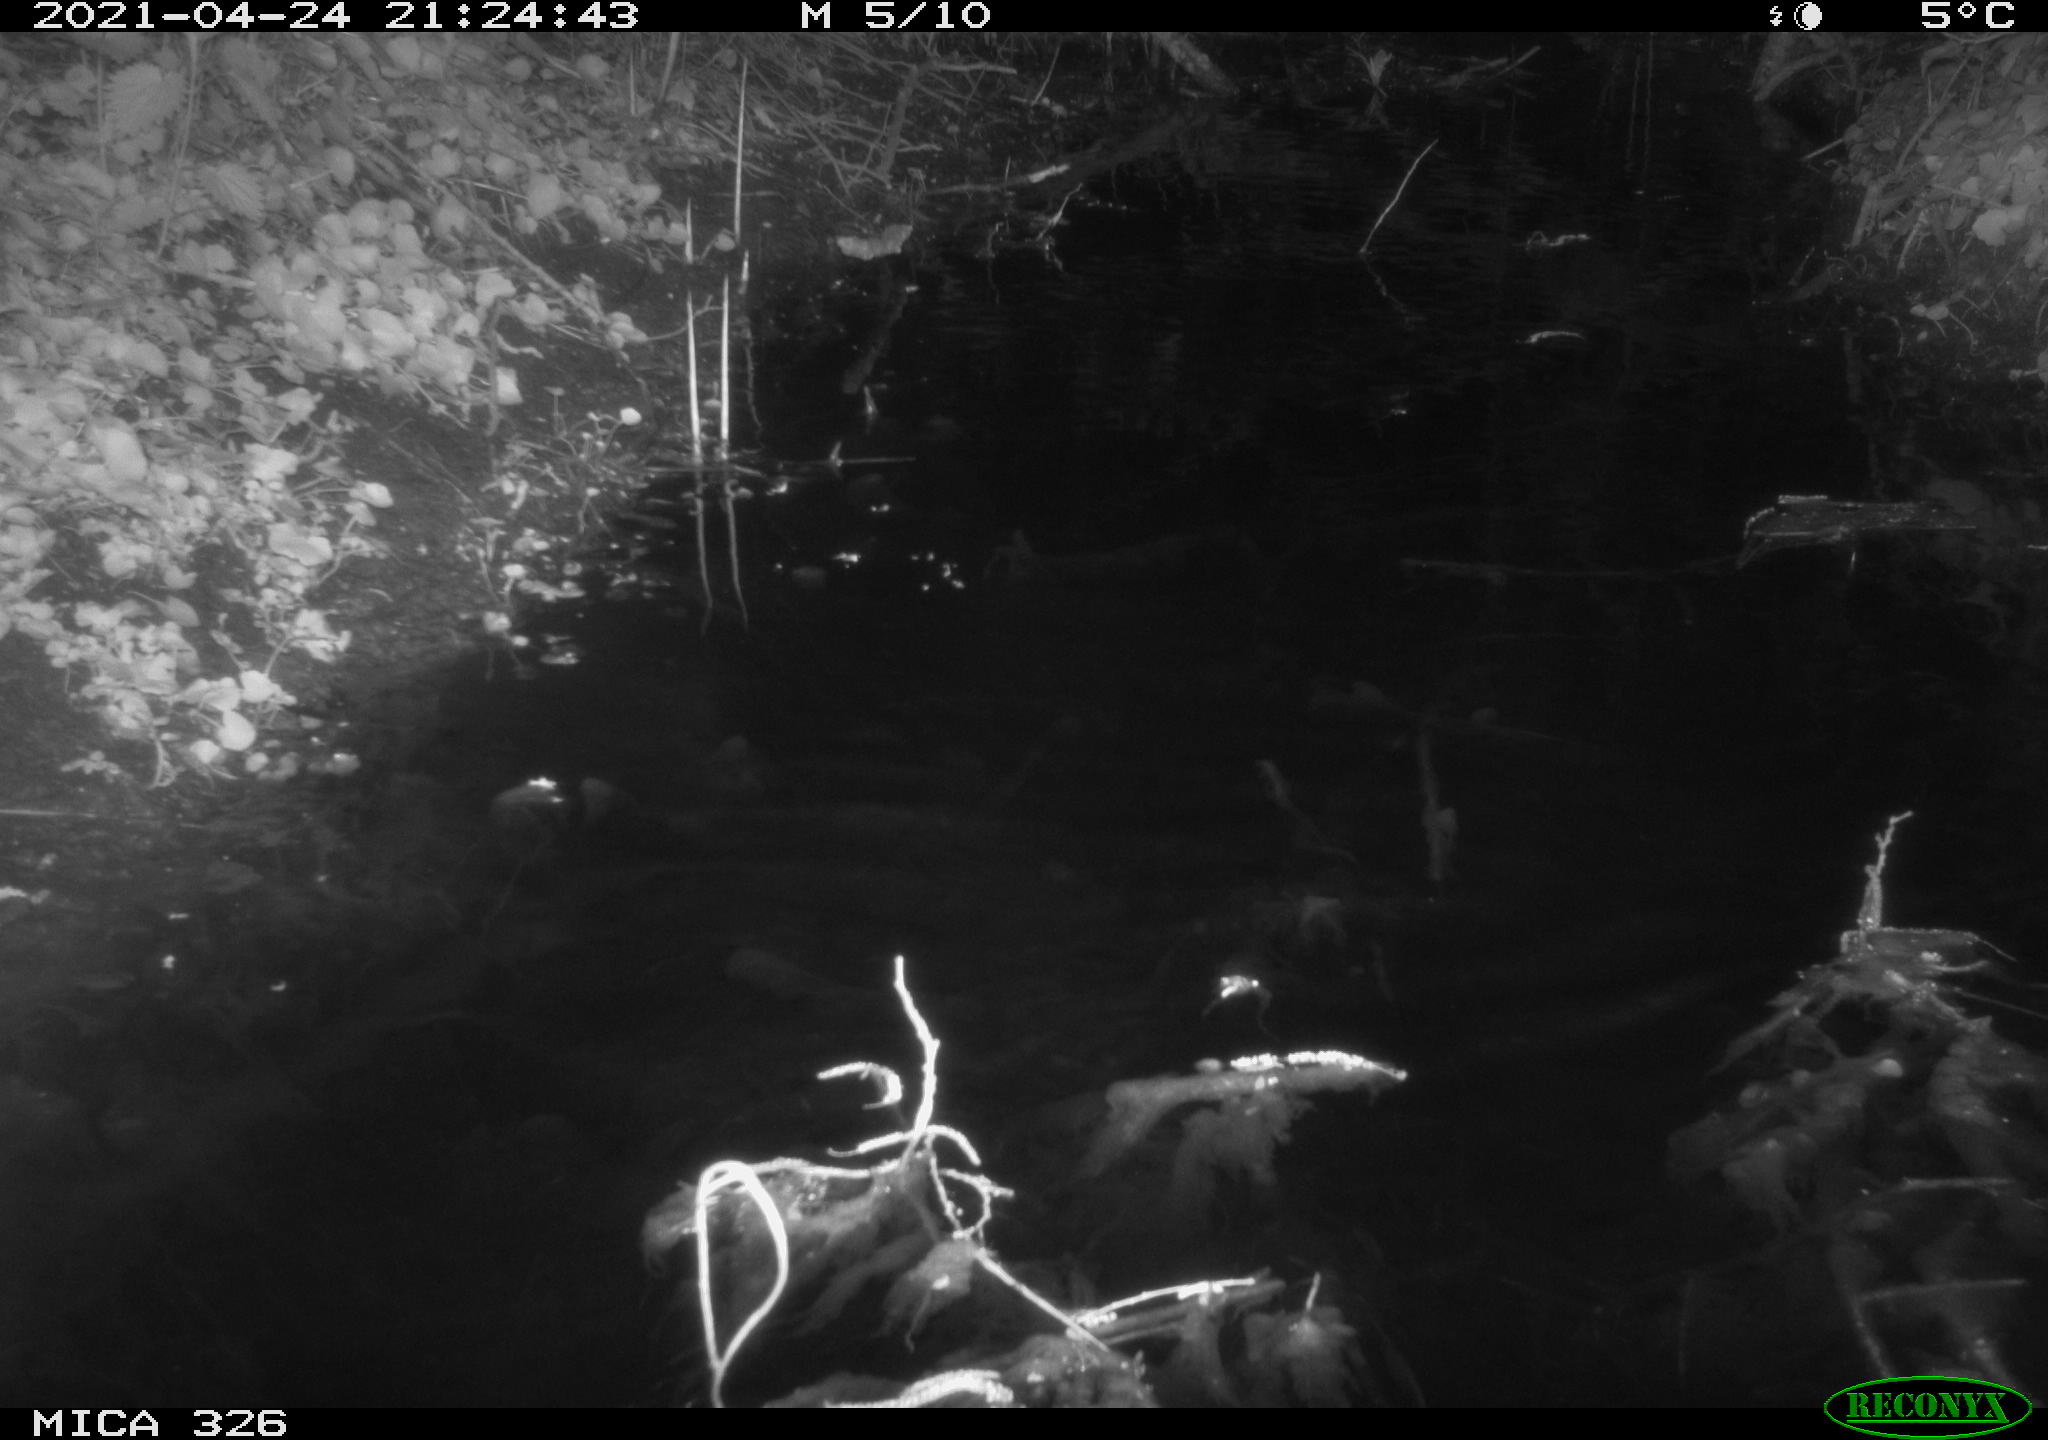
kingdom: Animalia
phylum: Chordata
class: Mammalia
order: Rodentia
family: Muridae
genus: Rattus
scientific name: Rattus norvegicus
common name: Brown rat
